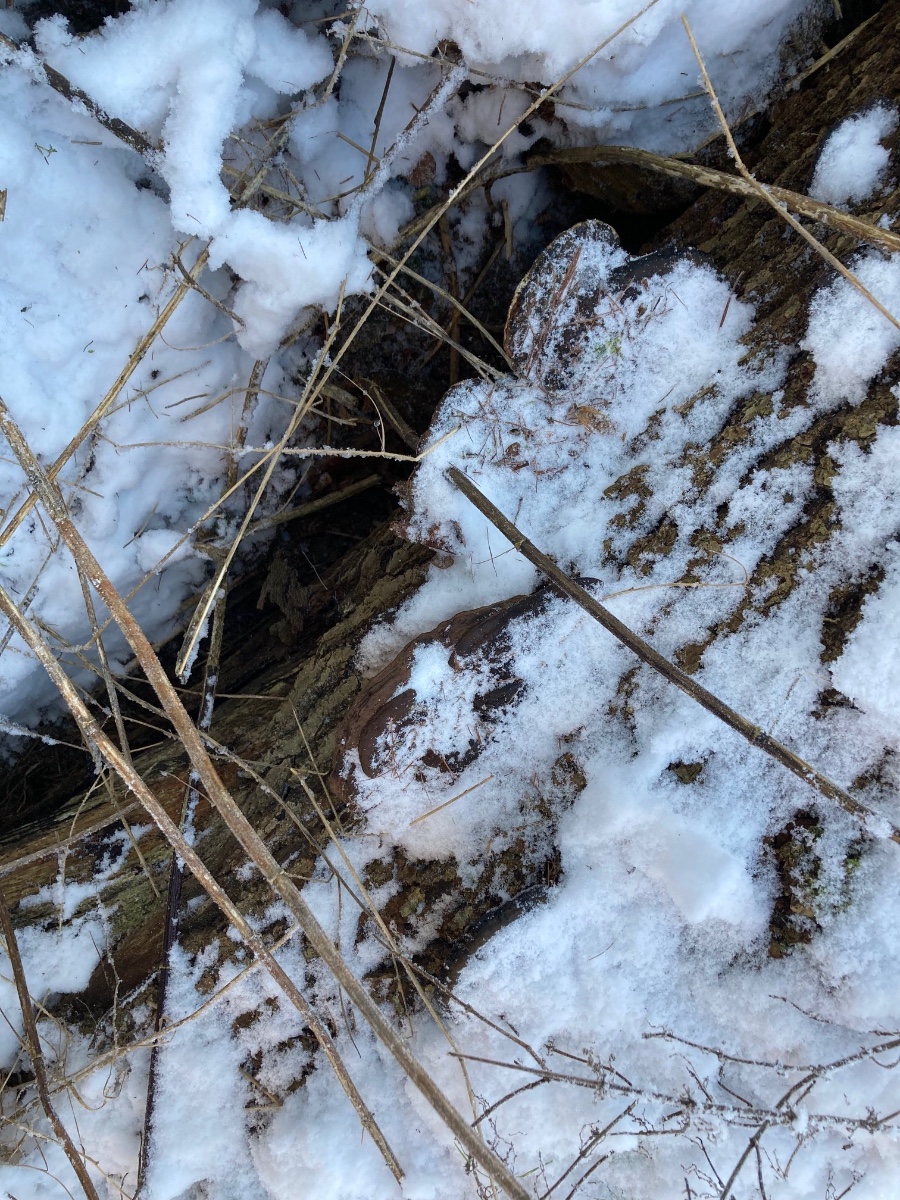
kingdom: Fungi
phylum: Basidiomycota
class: Agaricomycetes
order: Polyporales
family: Polyporaceae
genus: Ganoderma
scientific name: Ganoderma applanatum
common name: flad lakporesvamp
